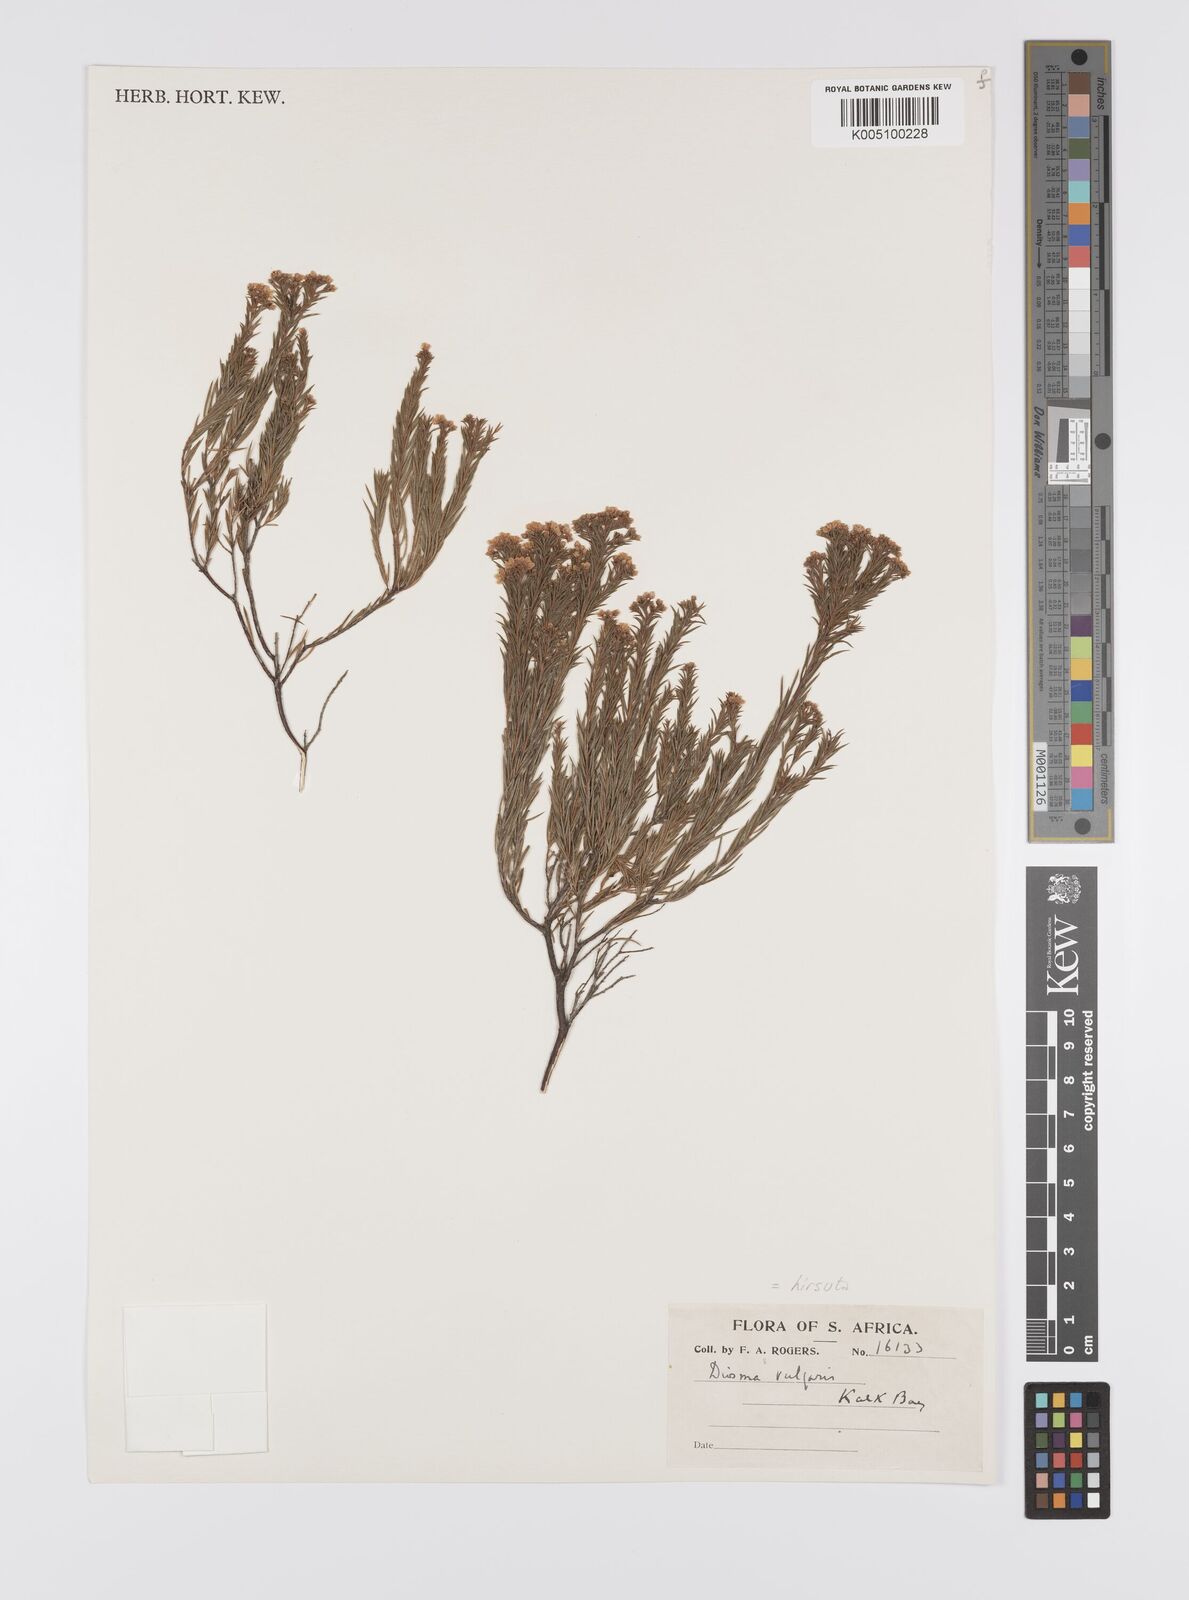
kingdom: Plantae
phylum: Tracheophyta
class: Magnoliopsida
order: Sapindales
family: Rutaceae
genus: Diosma
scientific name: Diosma hirsuta
